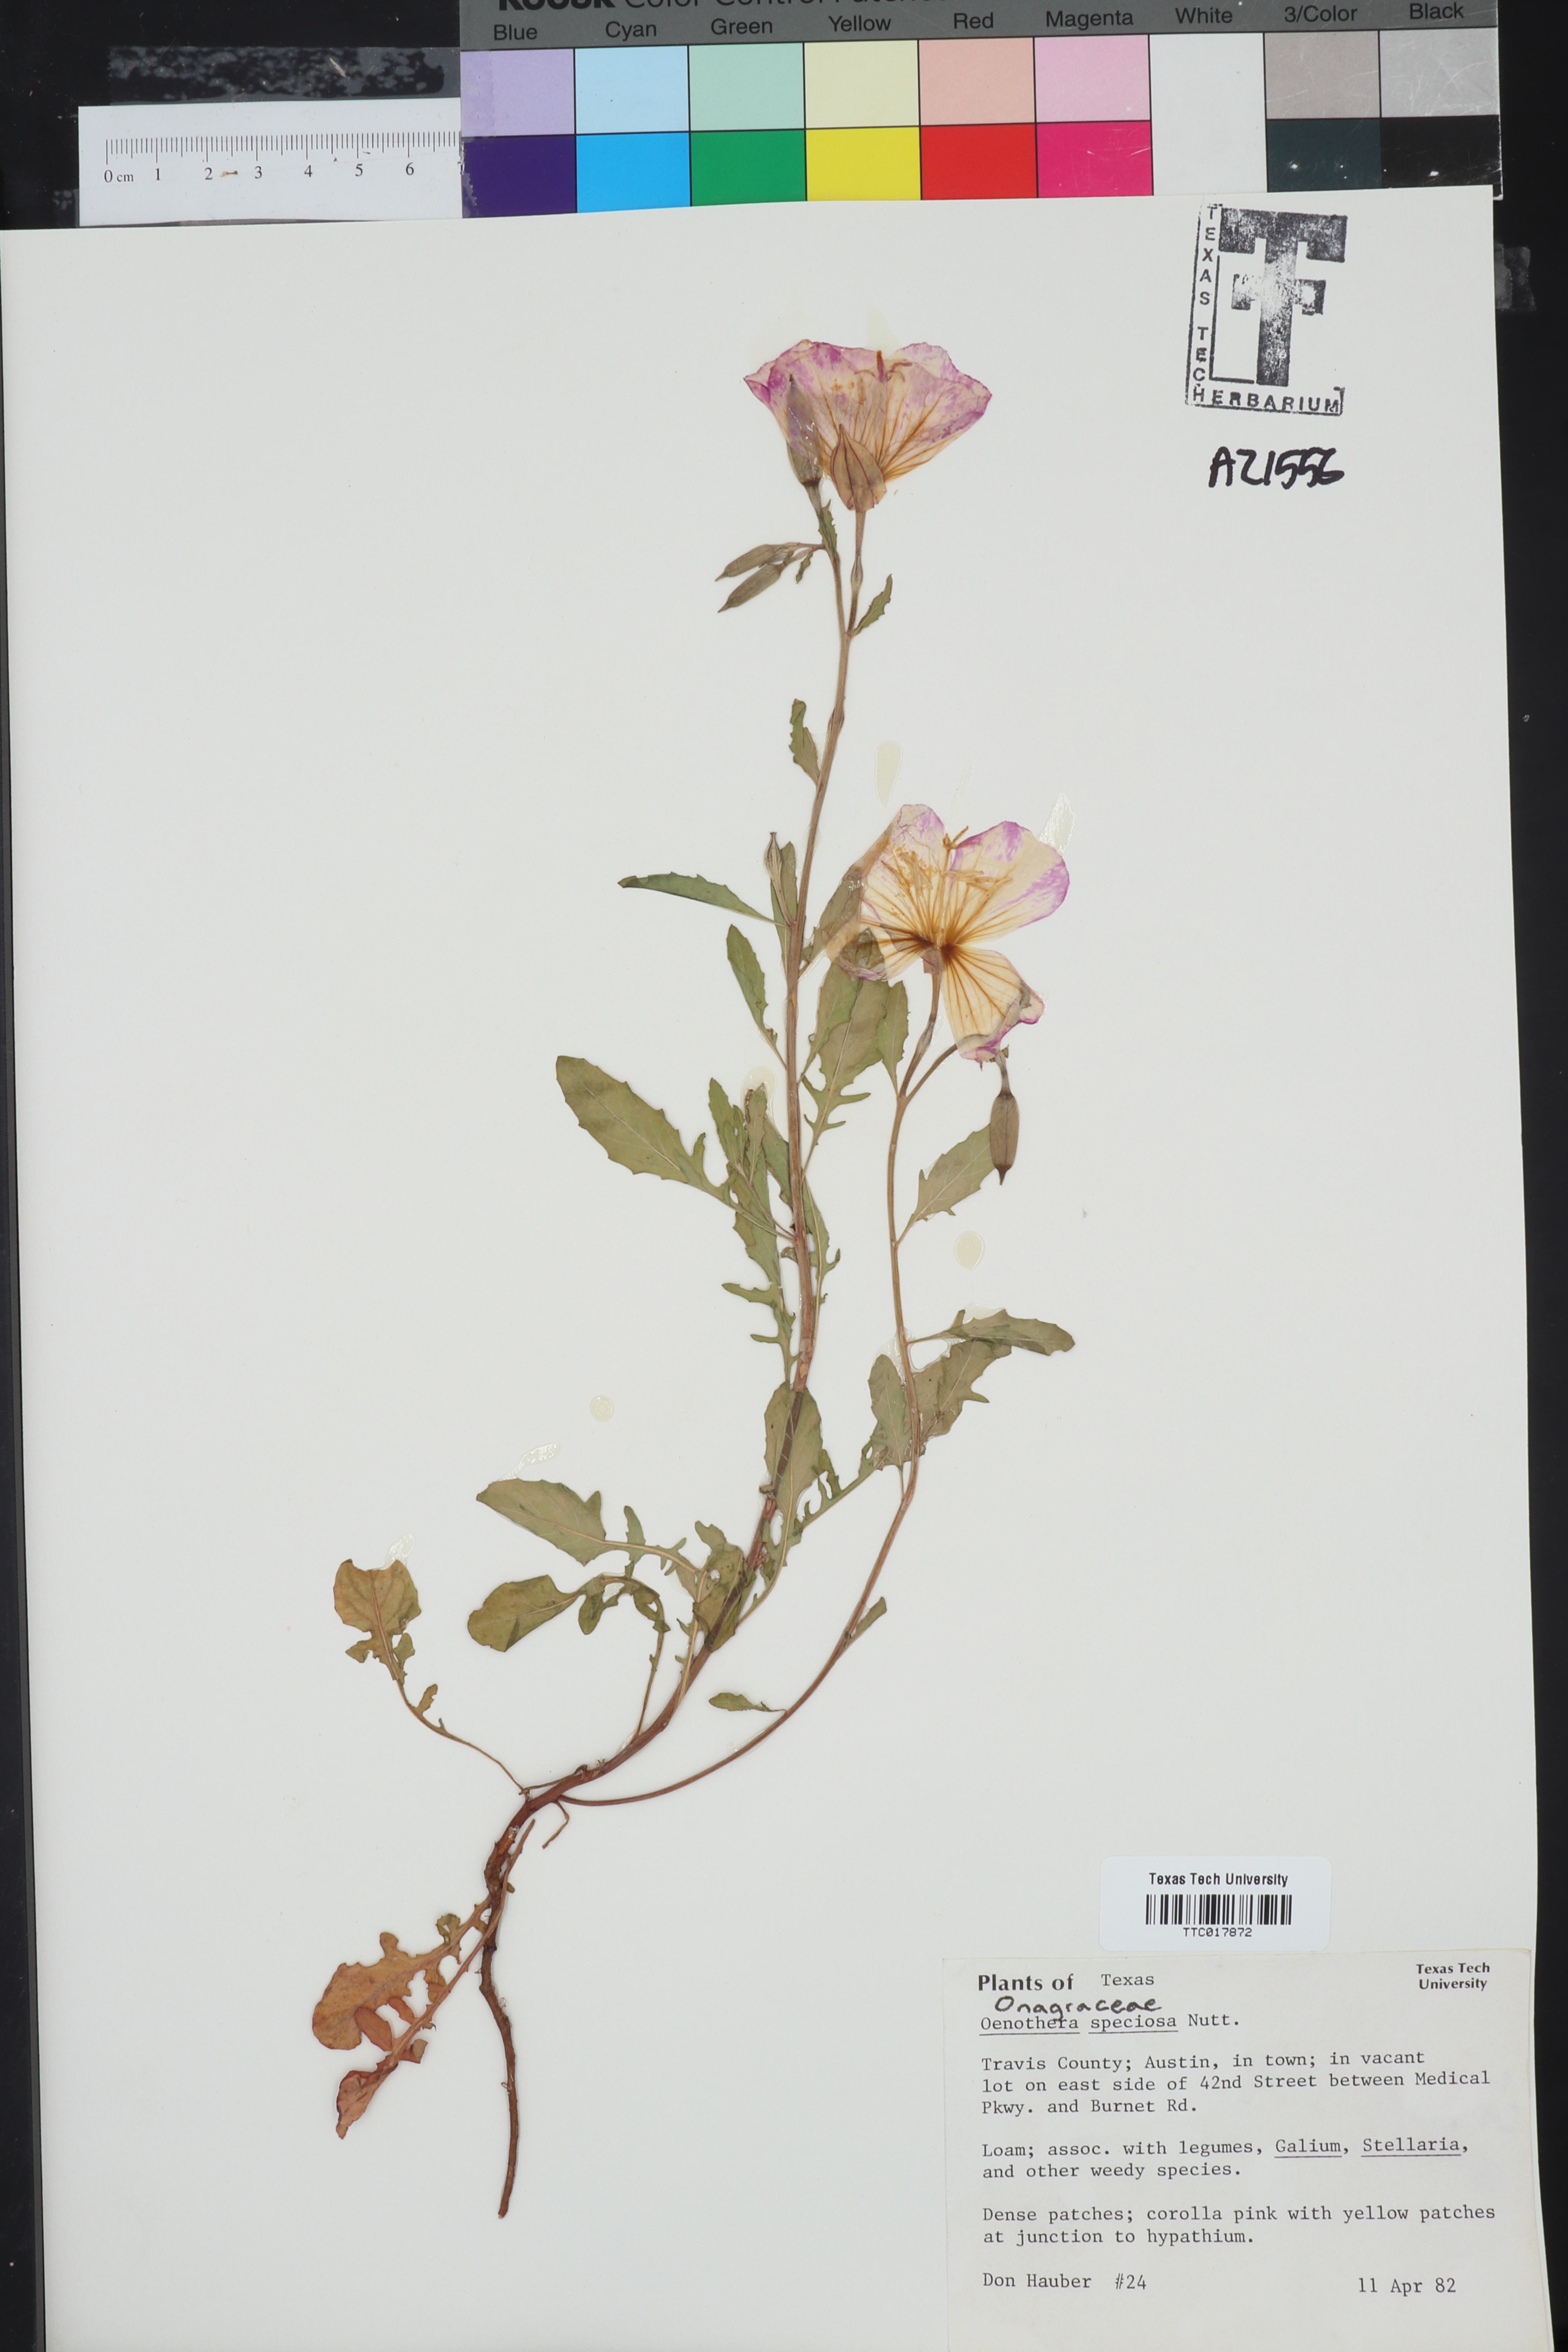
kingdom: Plantae
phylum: Tracheophyta
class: Magnoliopsida
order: Myrtales
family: Onagraceae
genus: Oenothera
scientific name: Oenothera speciosa
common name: White evening-primrose
